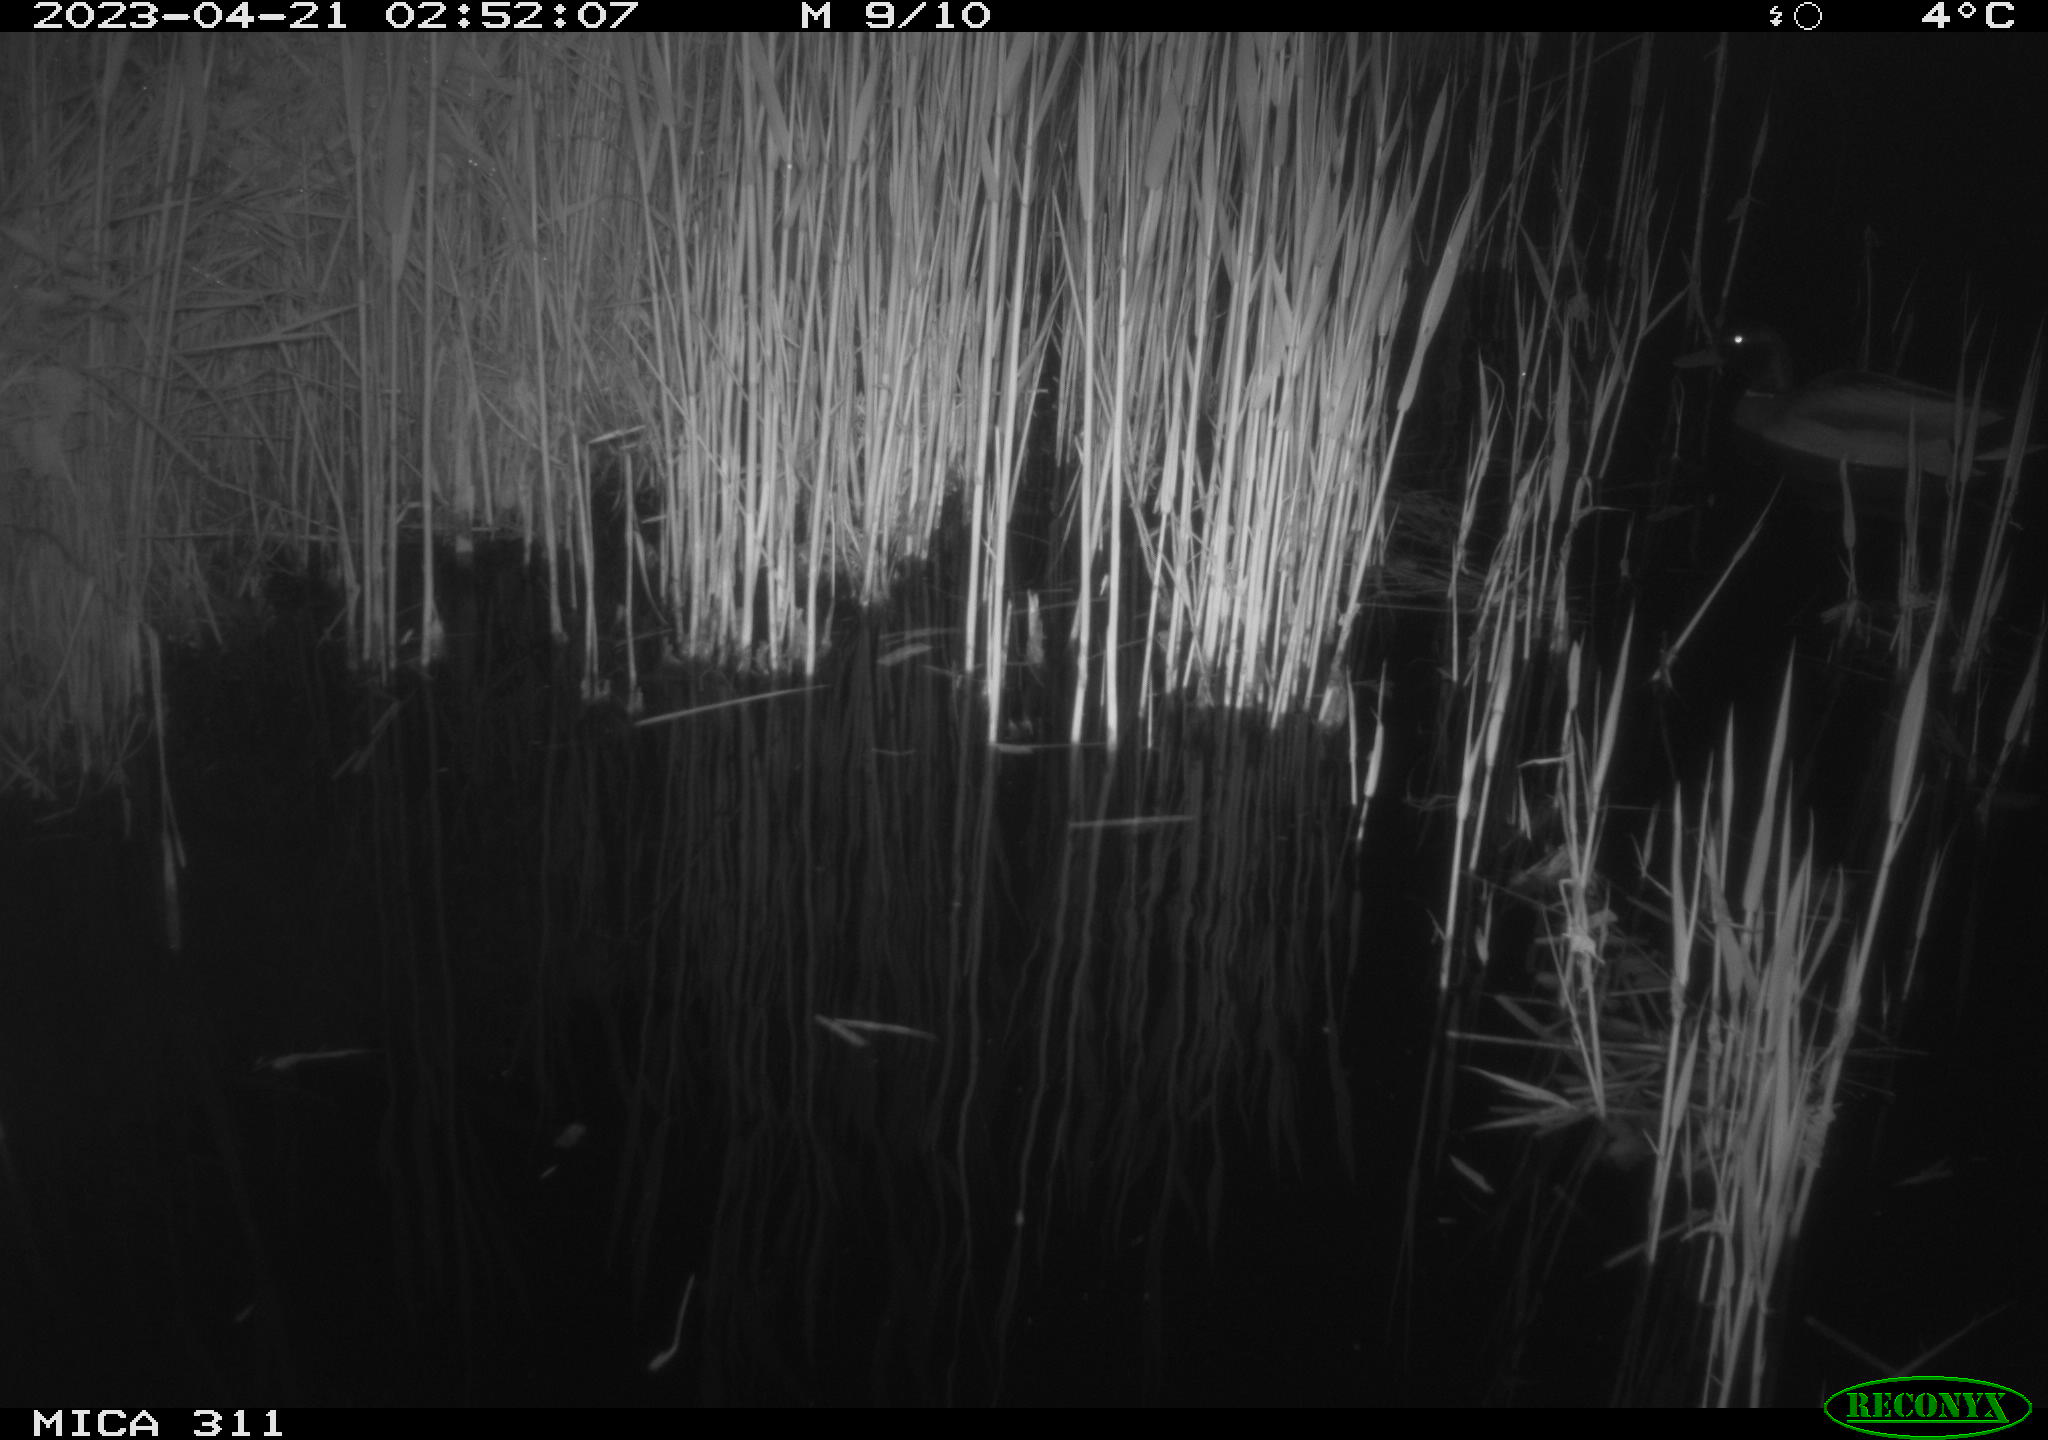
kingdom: Animalia
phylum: Chordata
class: Aves
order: Anseriformes
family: Anatidae
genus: Anas
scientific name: Anas
